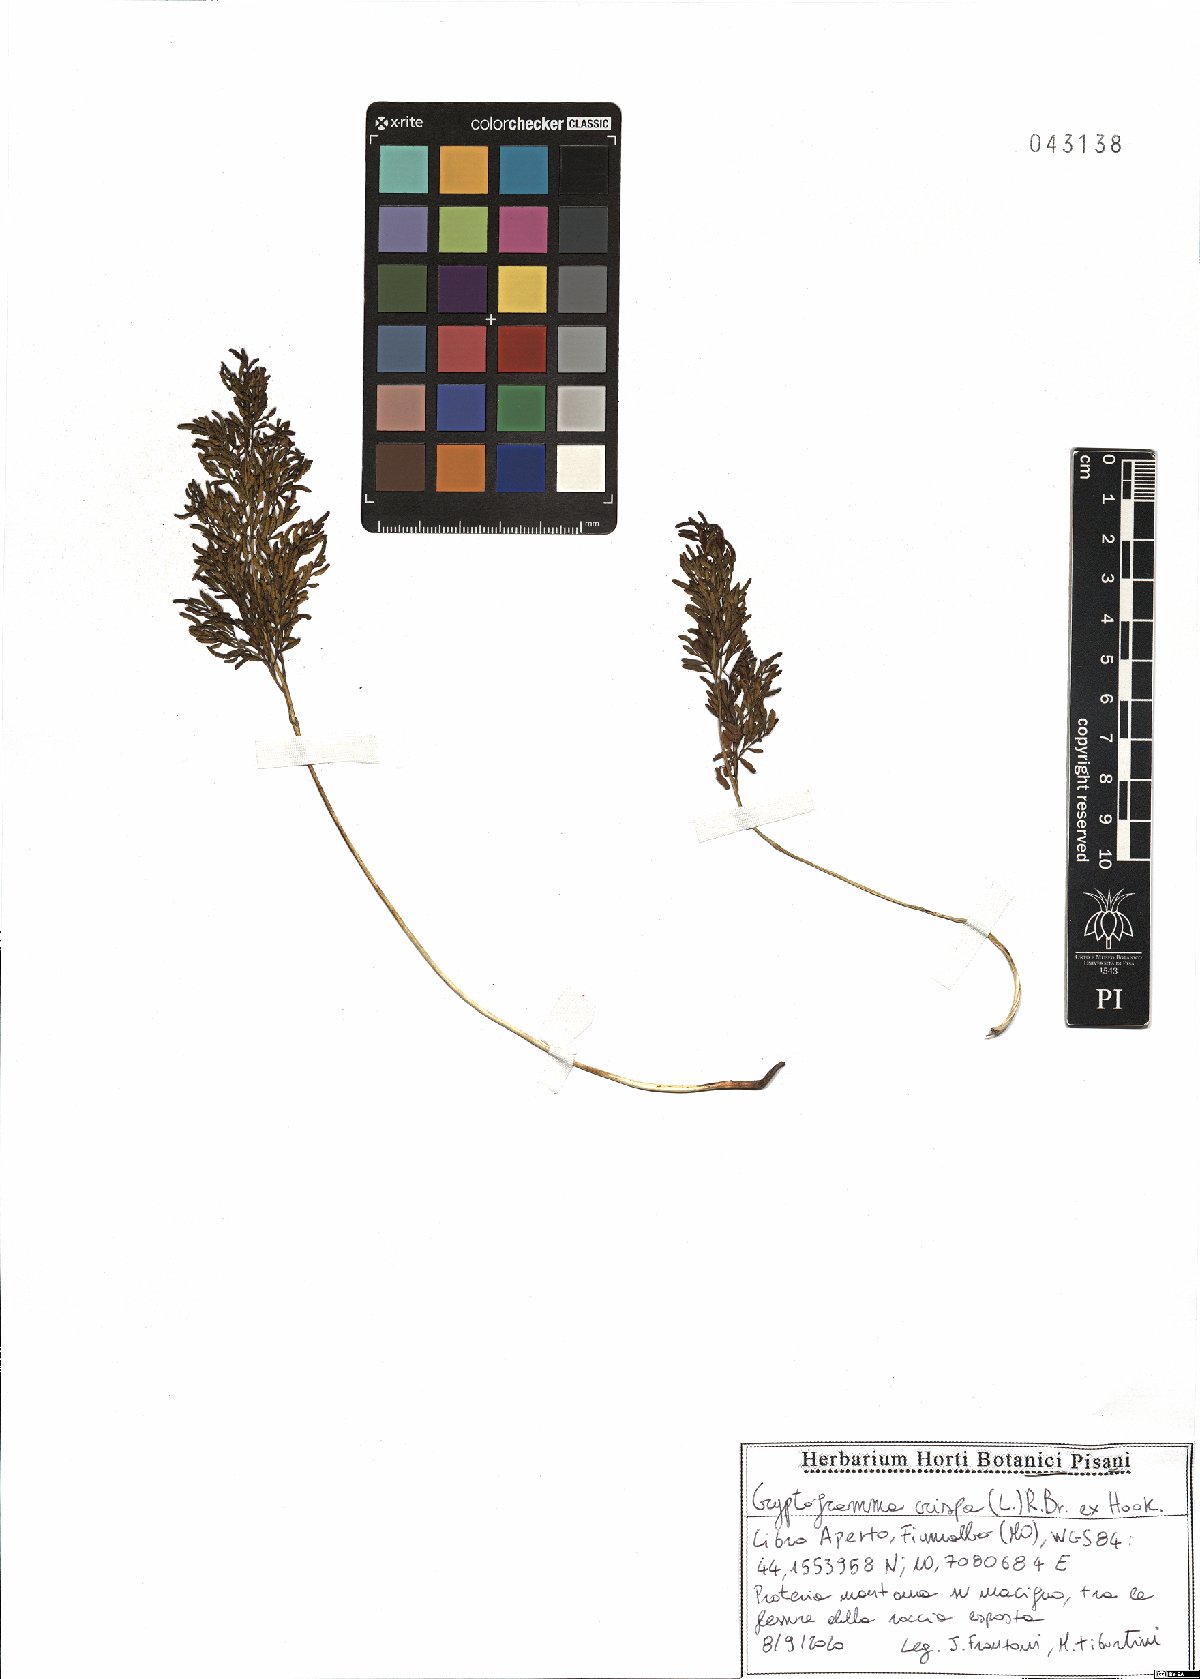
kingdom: Plantae
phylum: Tracheophyta
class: Polypodiopsida
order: Polypodiales
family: Pteridaceae
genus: Cryptogramma
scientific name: Cryptogramma crispa
